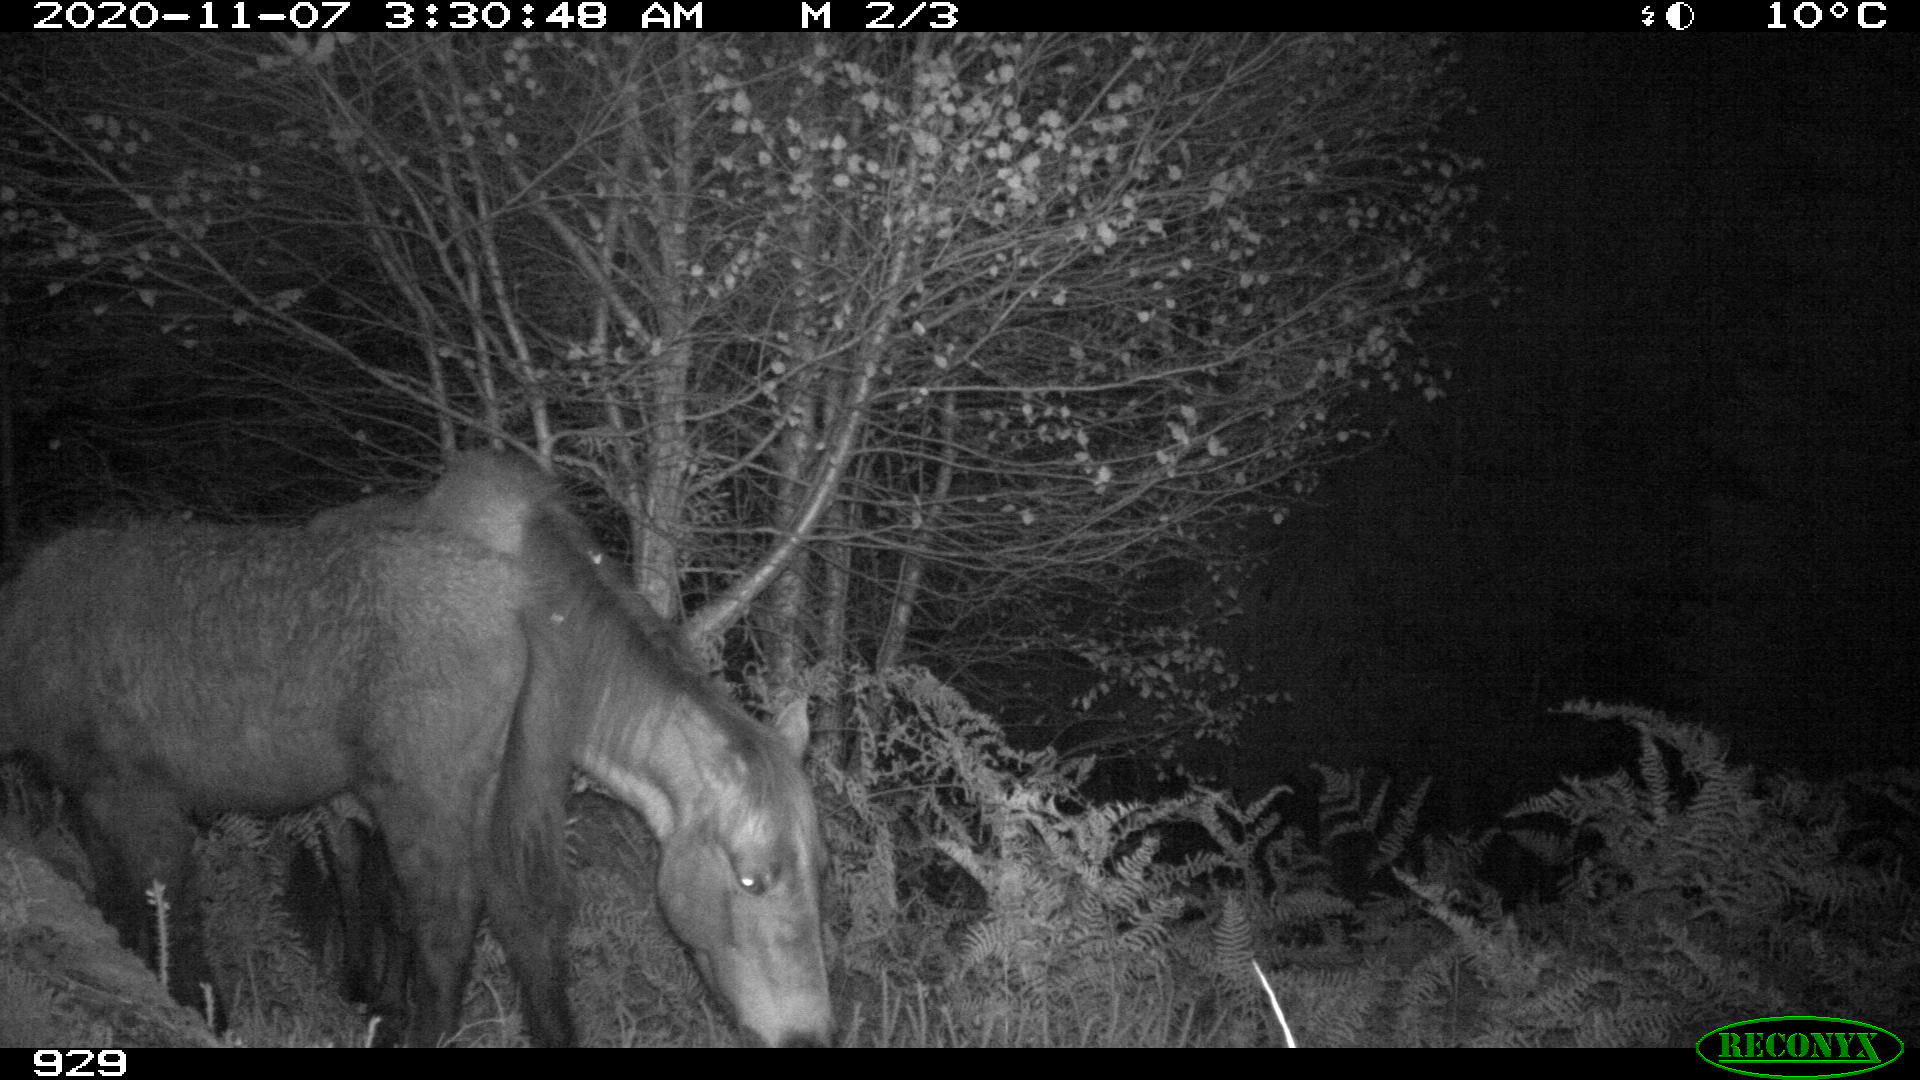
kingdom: Animalia
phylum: Chordata
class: Mammalia
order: Perissodactyla
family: Equidae
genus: Equus
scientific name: Equus caballus
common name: Horse
